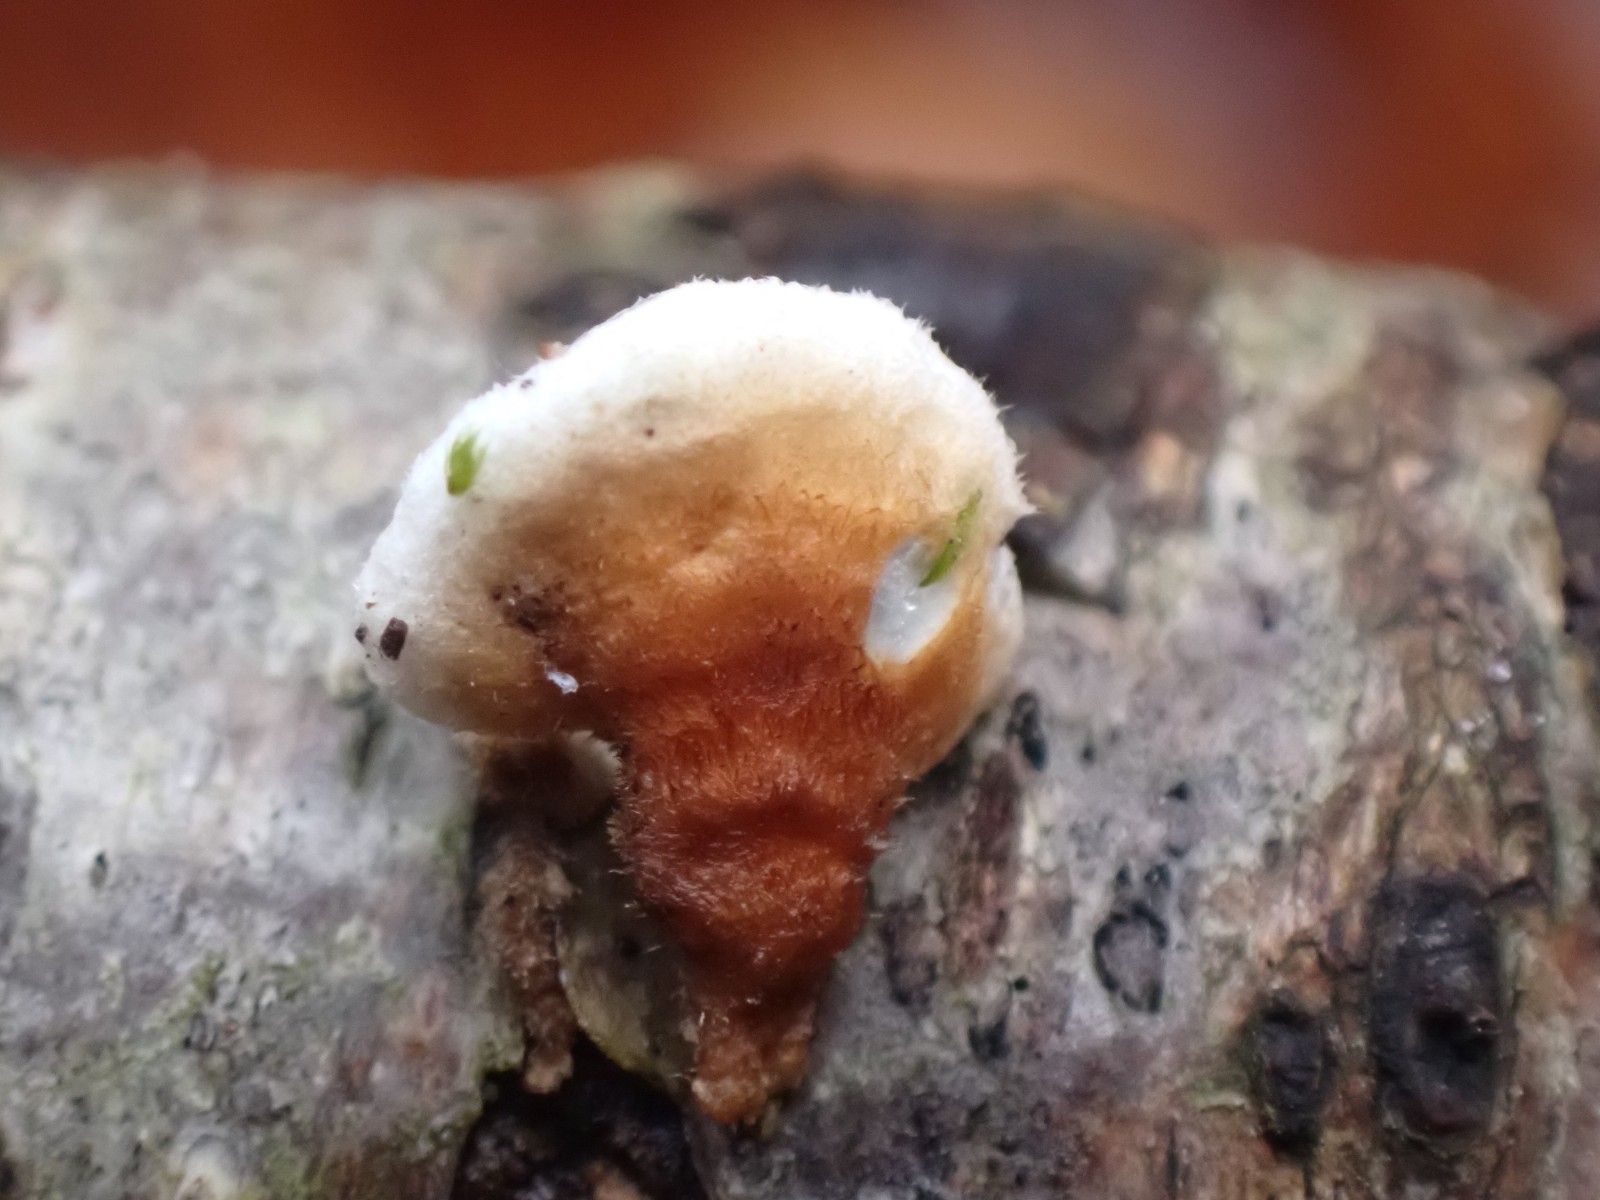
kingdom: Fungi
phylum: Basidiomycota
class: Agaricomycetes
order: Agaricales
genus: Plicatura
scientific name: Plicatura
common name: krusblad
